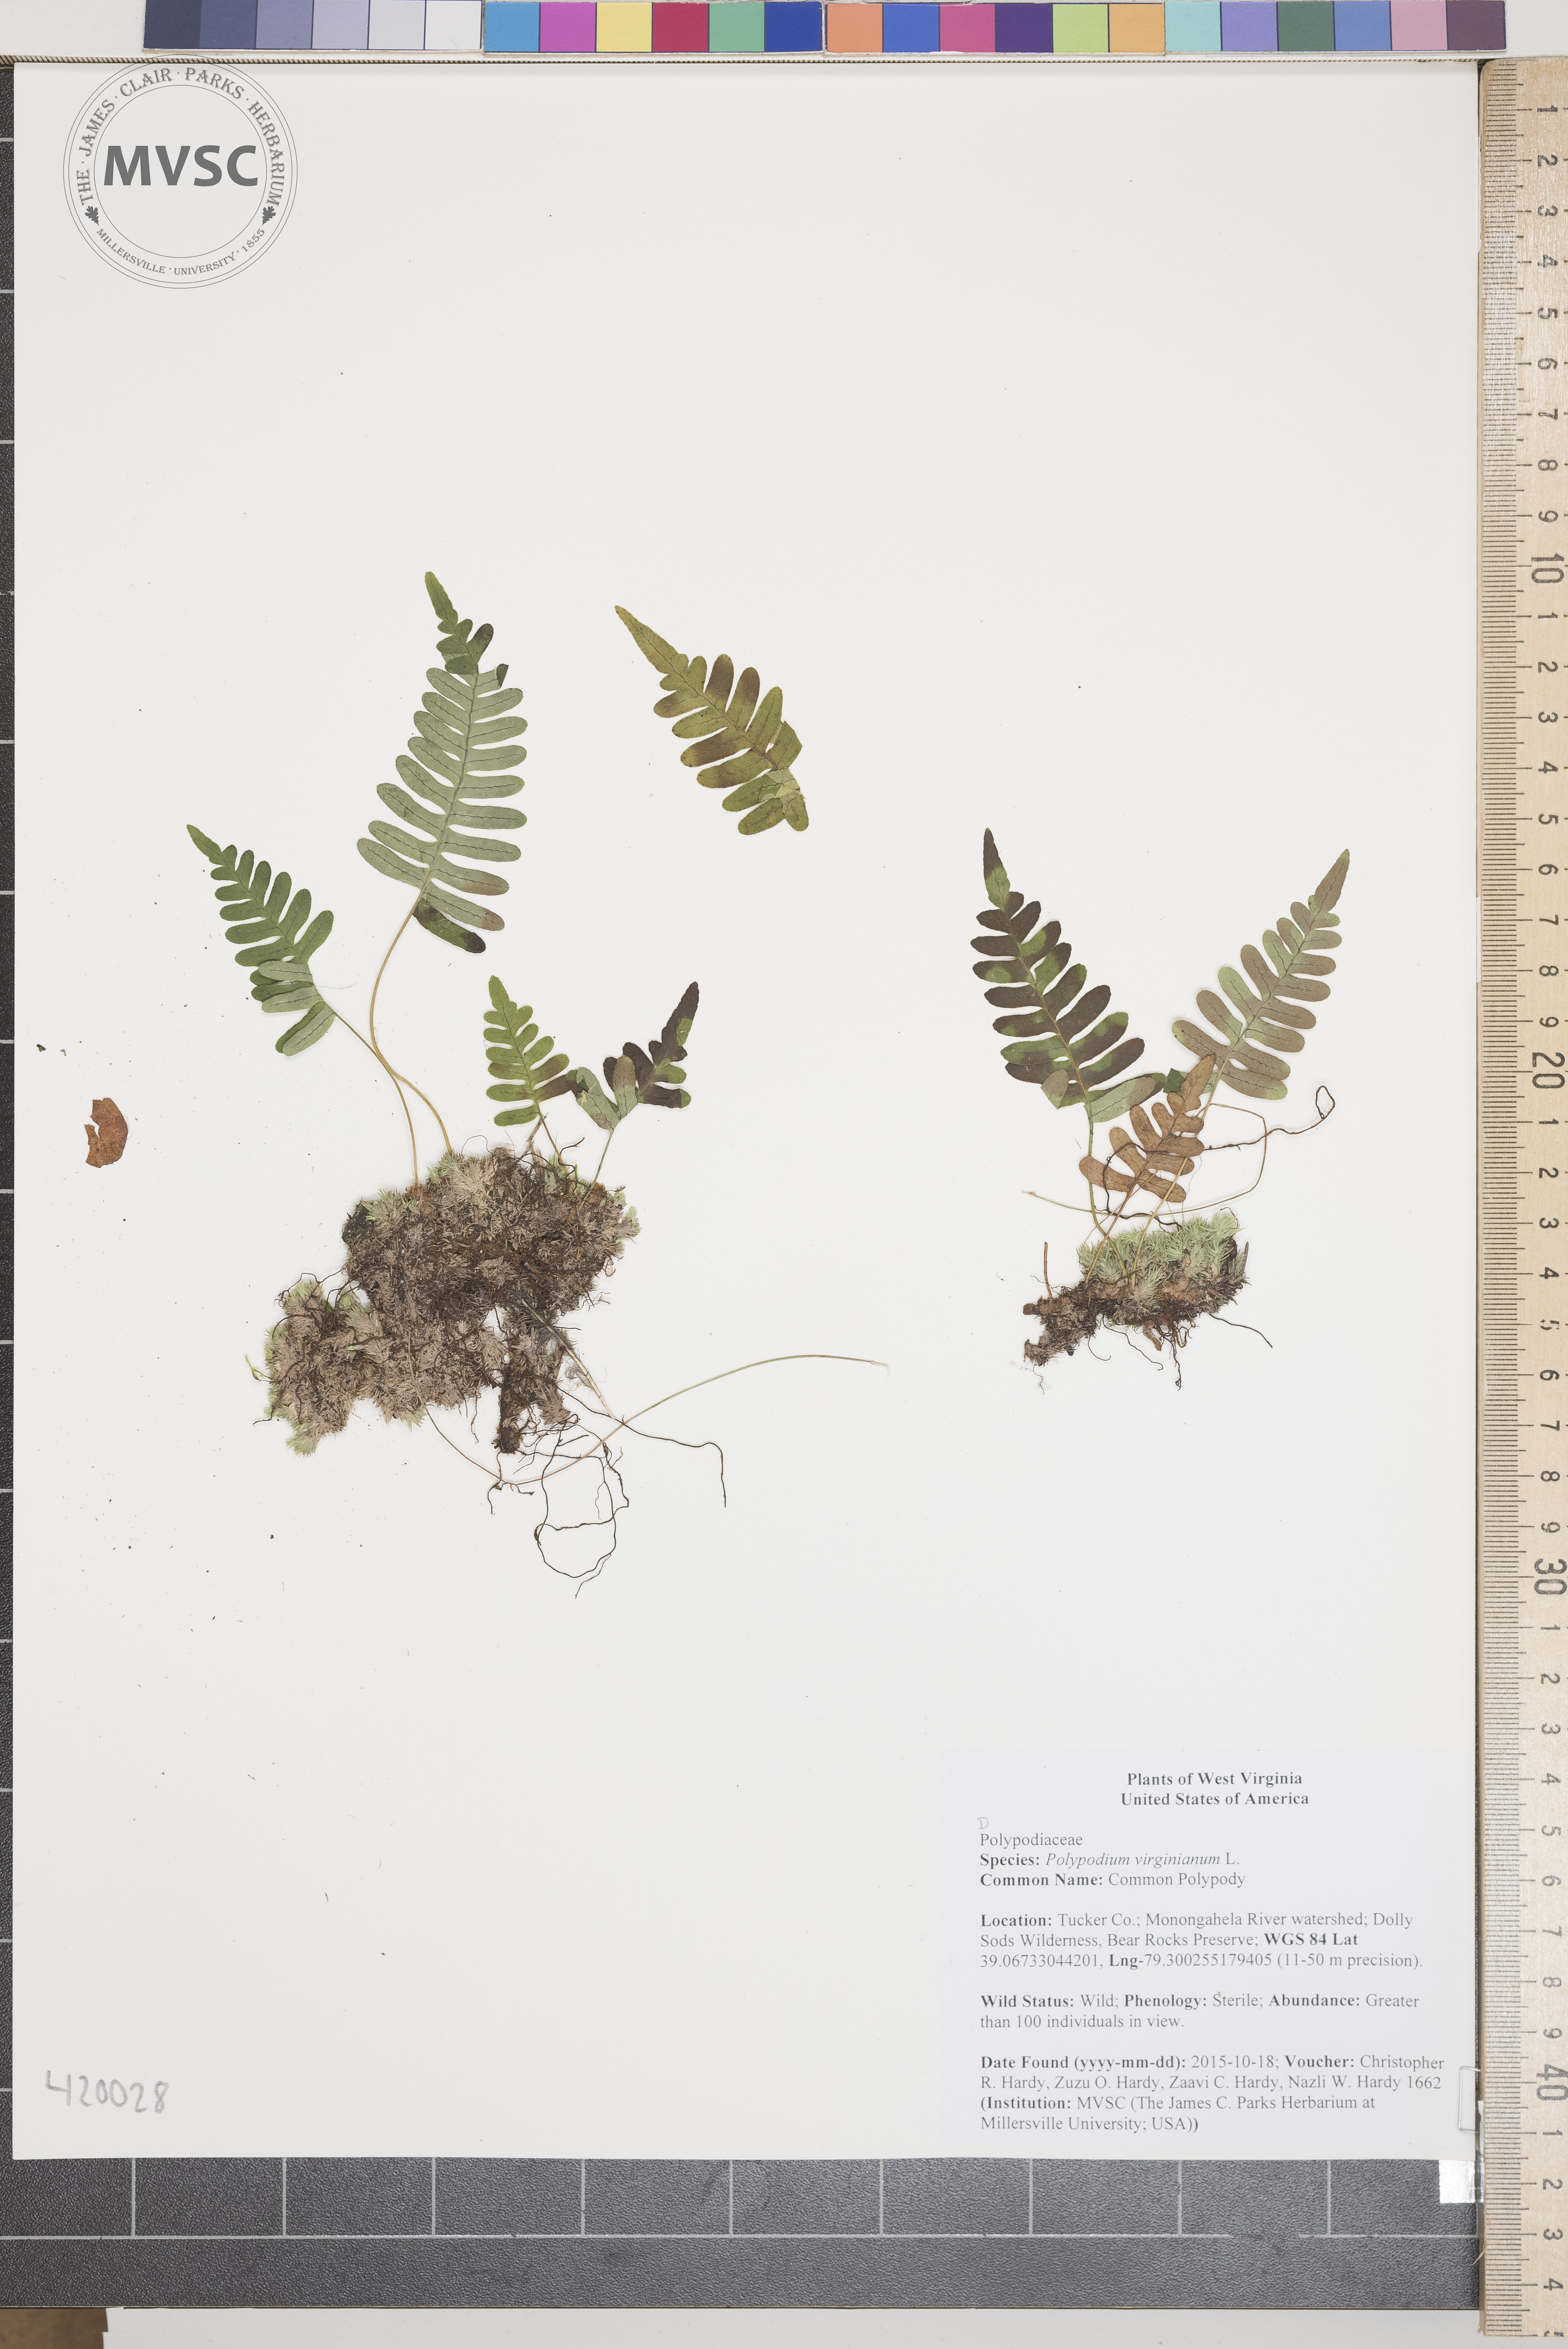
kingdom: Plantae
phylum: Tracheophyta
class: Polypodiopsida
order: Polypodiales
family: Polypodiaceae
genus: Polypodium
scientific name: Polypodium virginianum
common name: Common Polypody
